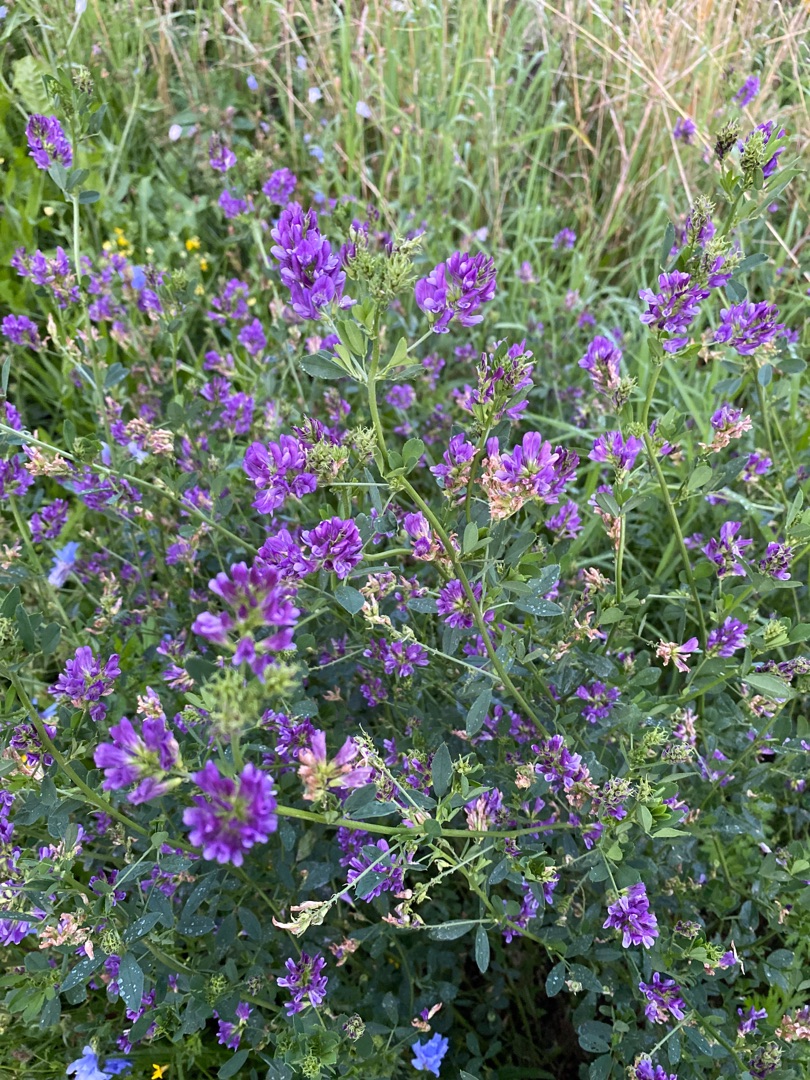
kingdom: Plantae
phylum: Tracheophyta
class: Magnoliopsida
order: Fabales
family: Fabaceae
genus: Medicago
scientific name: Medicago sativa
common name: Foderlucerne
